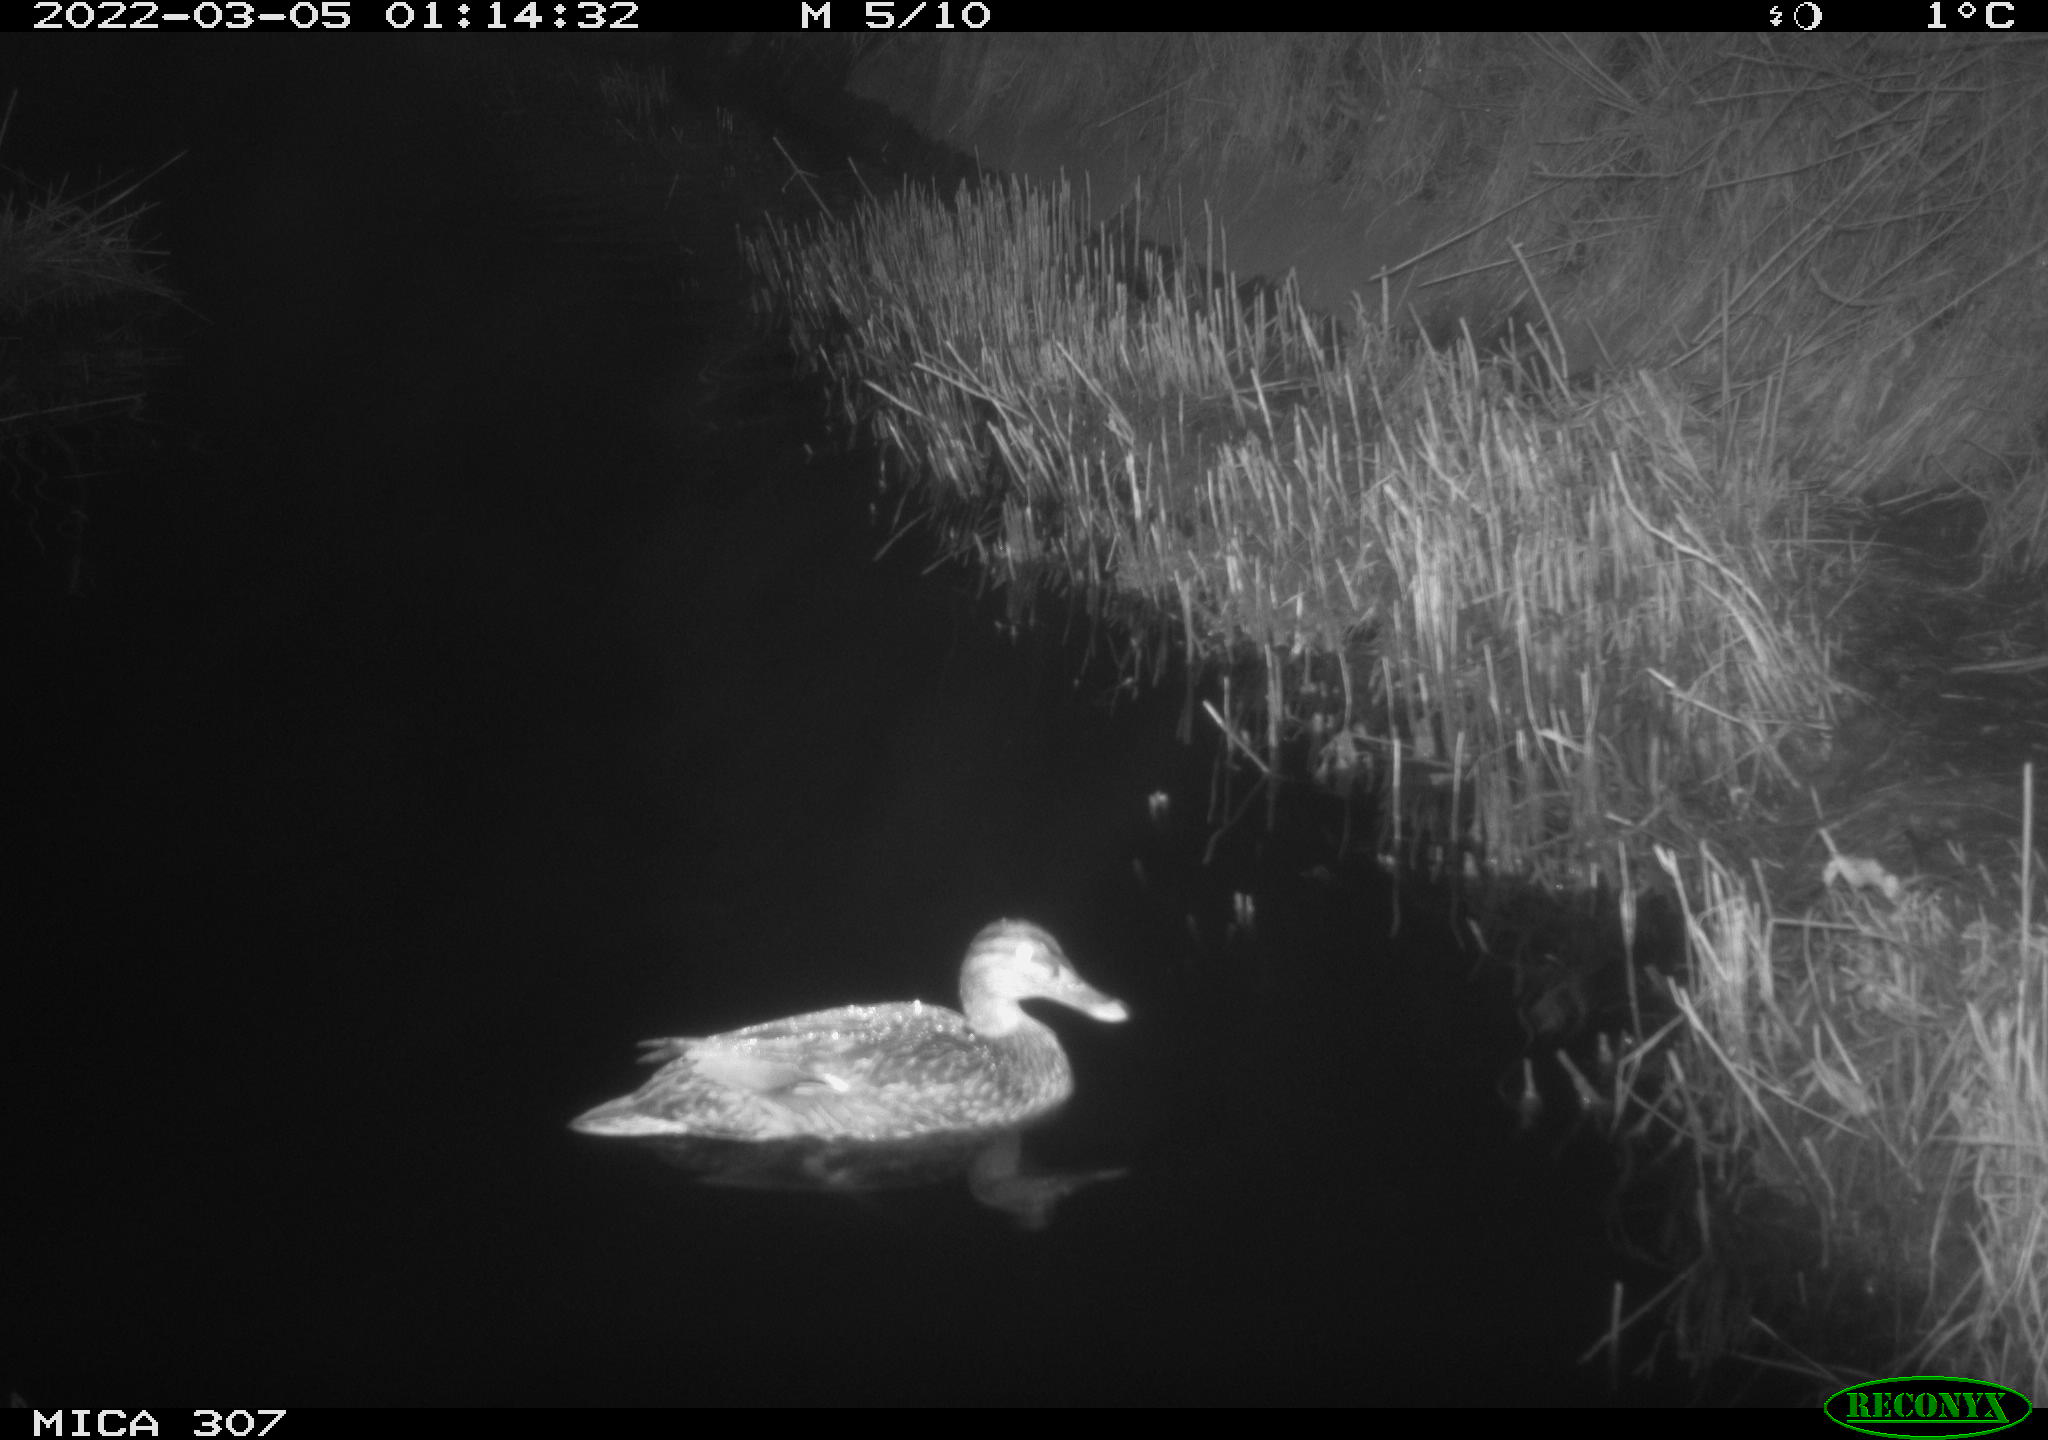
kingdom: Animalia
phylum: Chordata
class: Aves
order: Anseriformes
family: Anatidae
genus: Anas
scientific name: Anas platyrhynchos
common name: Mallard
